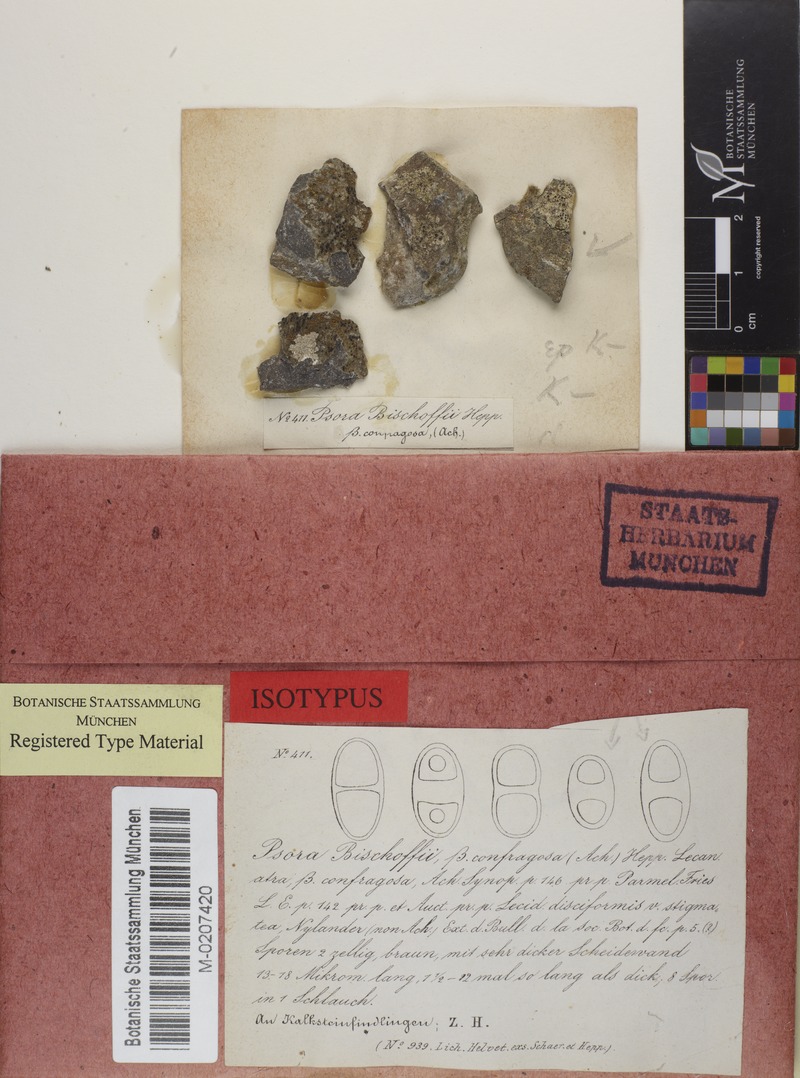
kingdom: Fungi
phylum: Ascomycota
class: Lecanoromycetes
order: Caliciales
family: Physciaceae
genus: Rinodina
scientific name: Rinodina bischoffii
